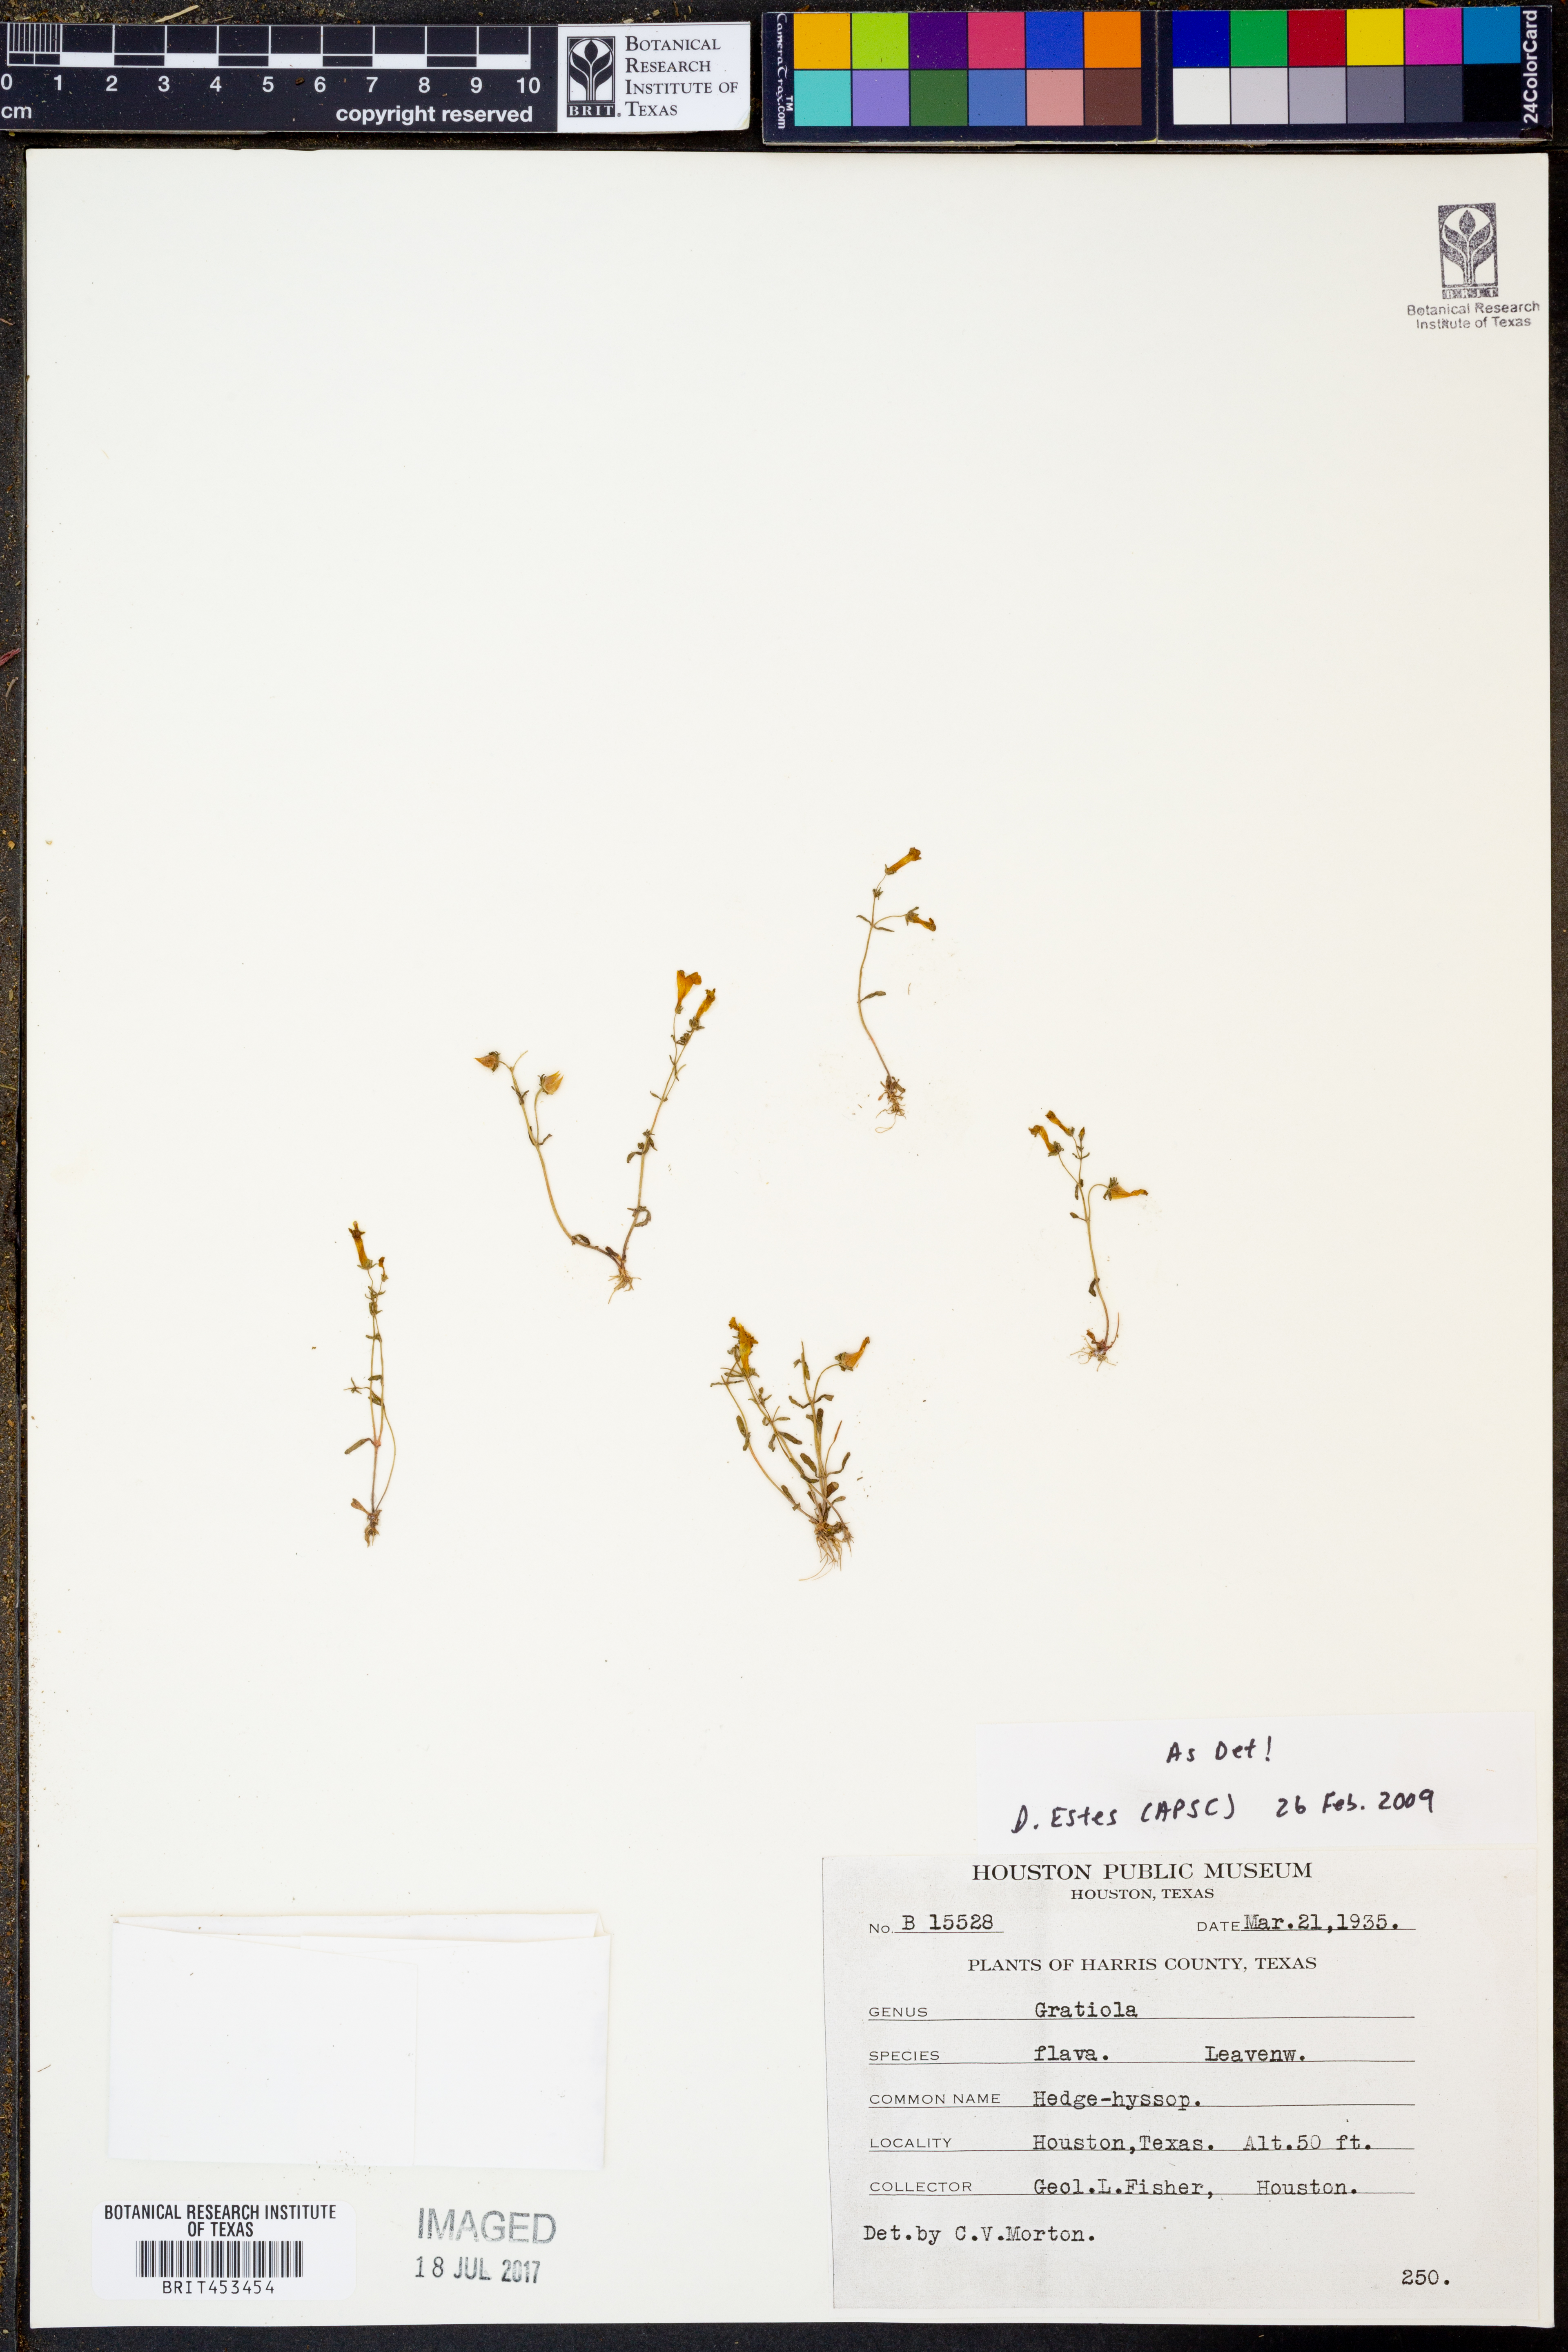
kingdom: Plantae
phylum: Tracheophyta
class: Magnoliopsida
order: Lamiales
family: Plantaginaceae
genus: Gratiola
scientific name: Gratiola flava
